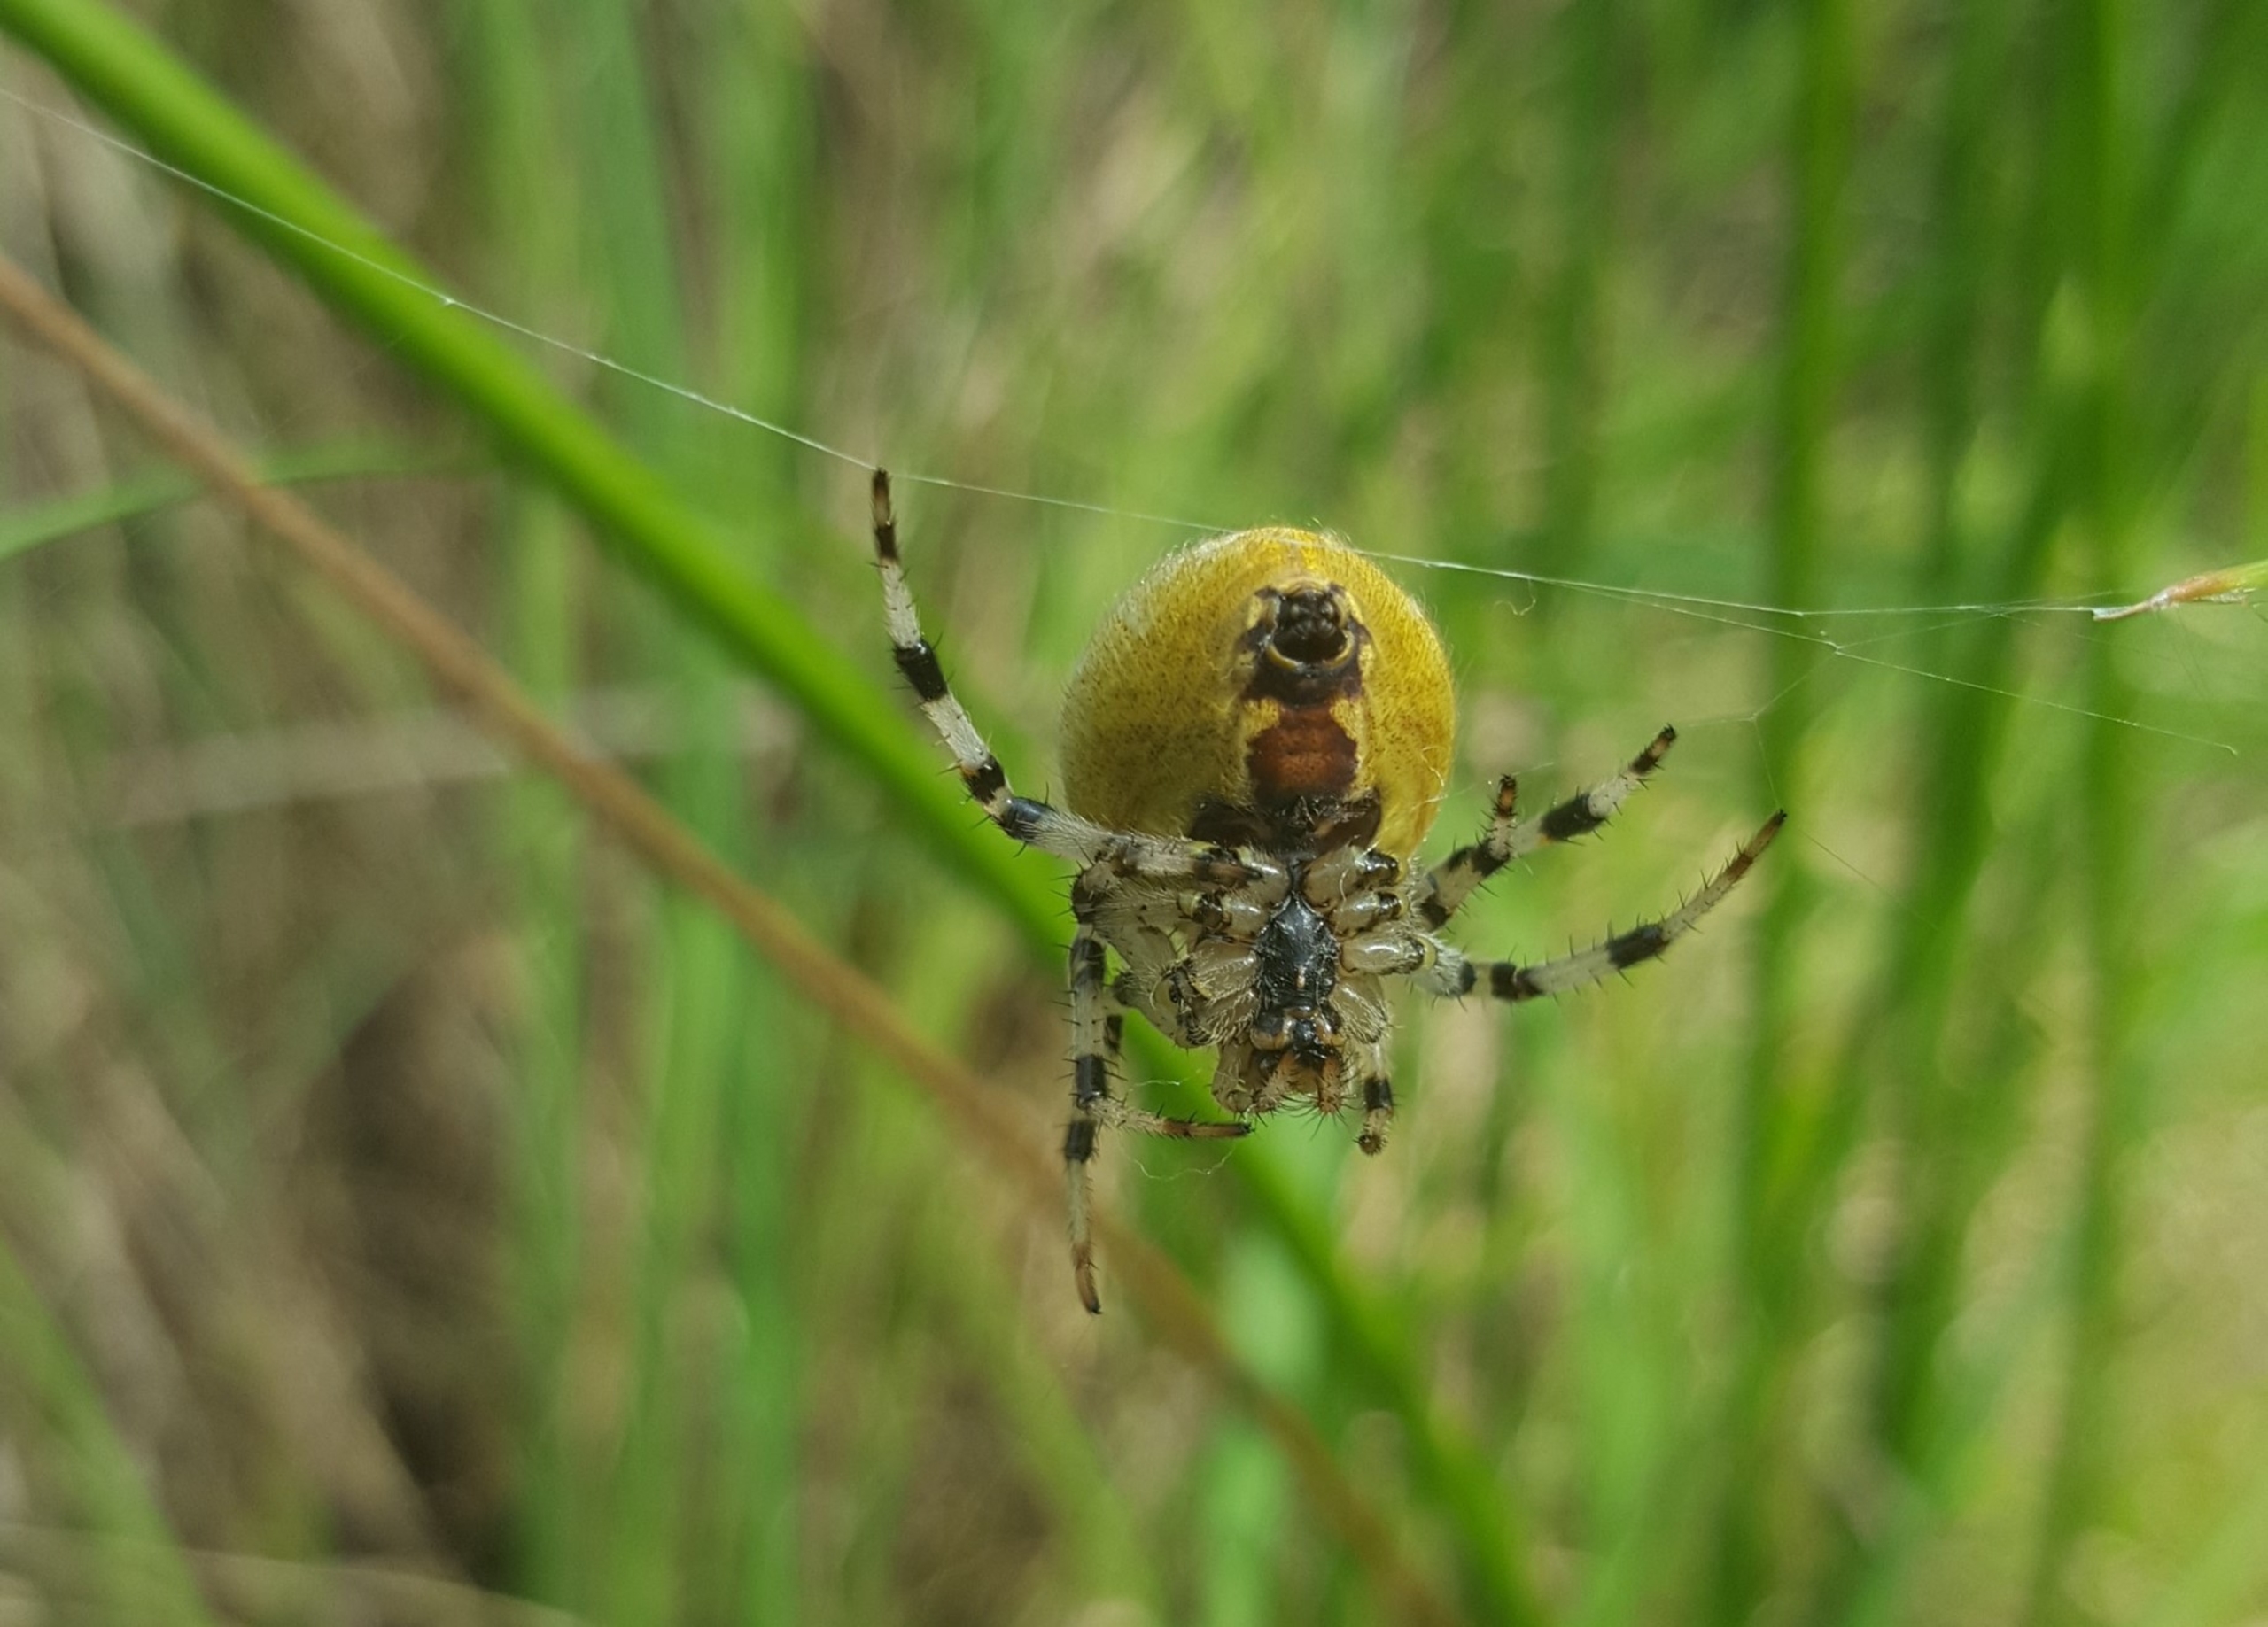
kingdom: Animalia
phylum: Arthropoda
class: Arachnida
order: Araneae
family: Araneidae
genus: Araneus
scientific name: Araneus quadratus
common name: Kvadratedderkop
